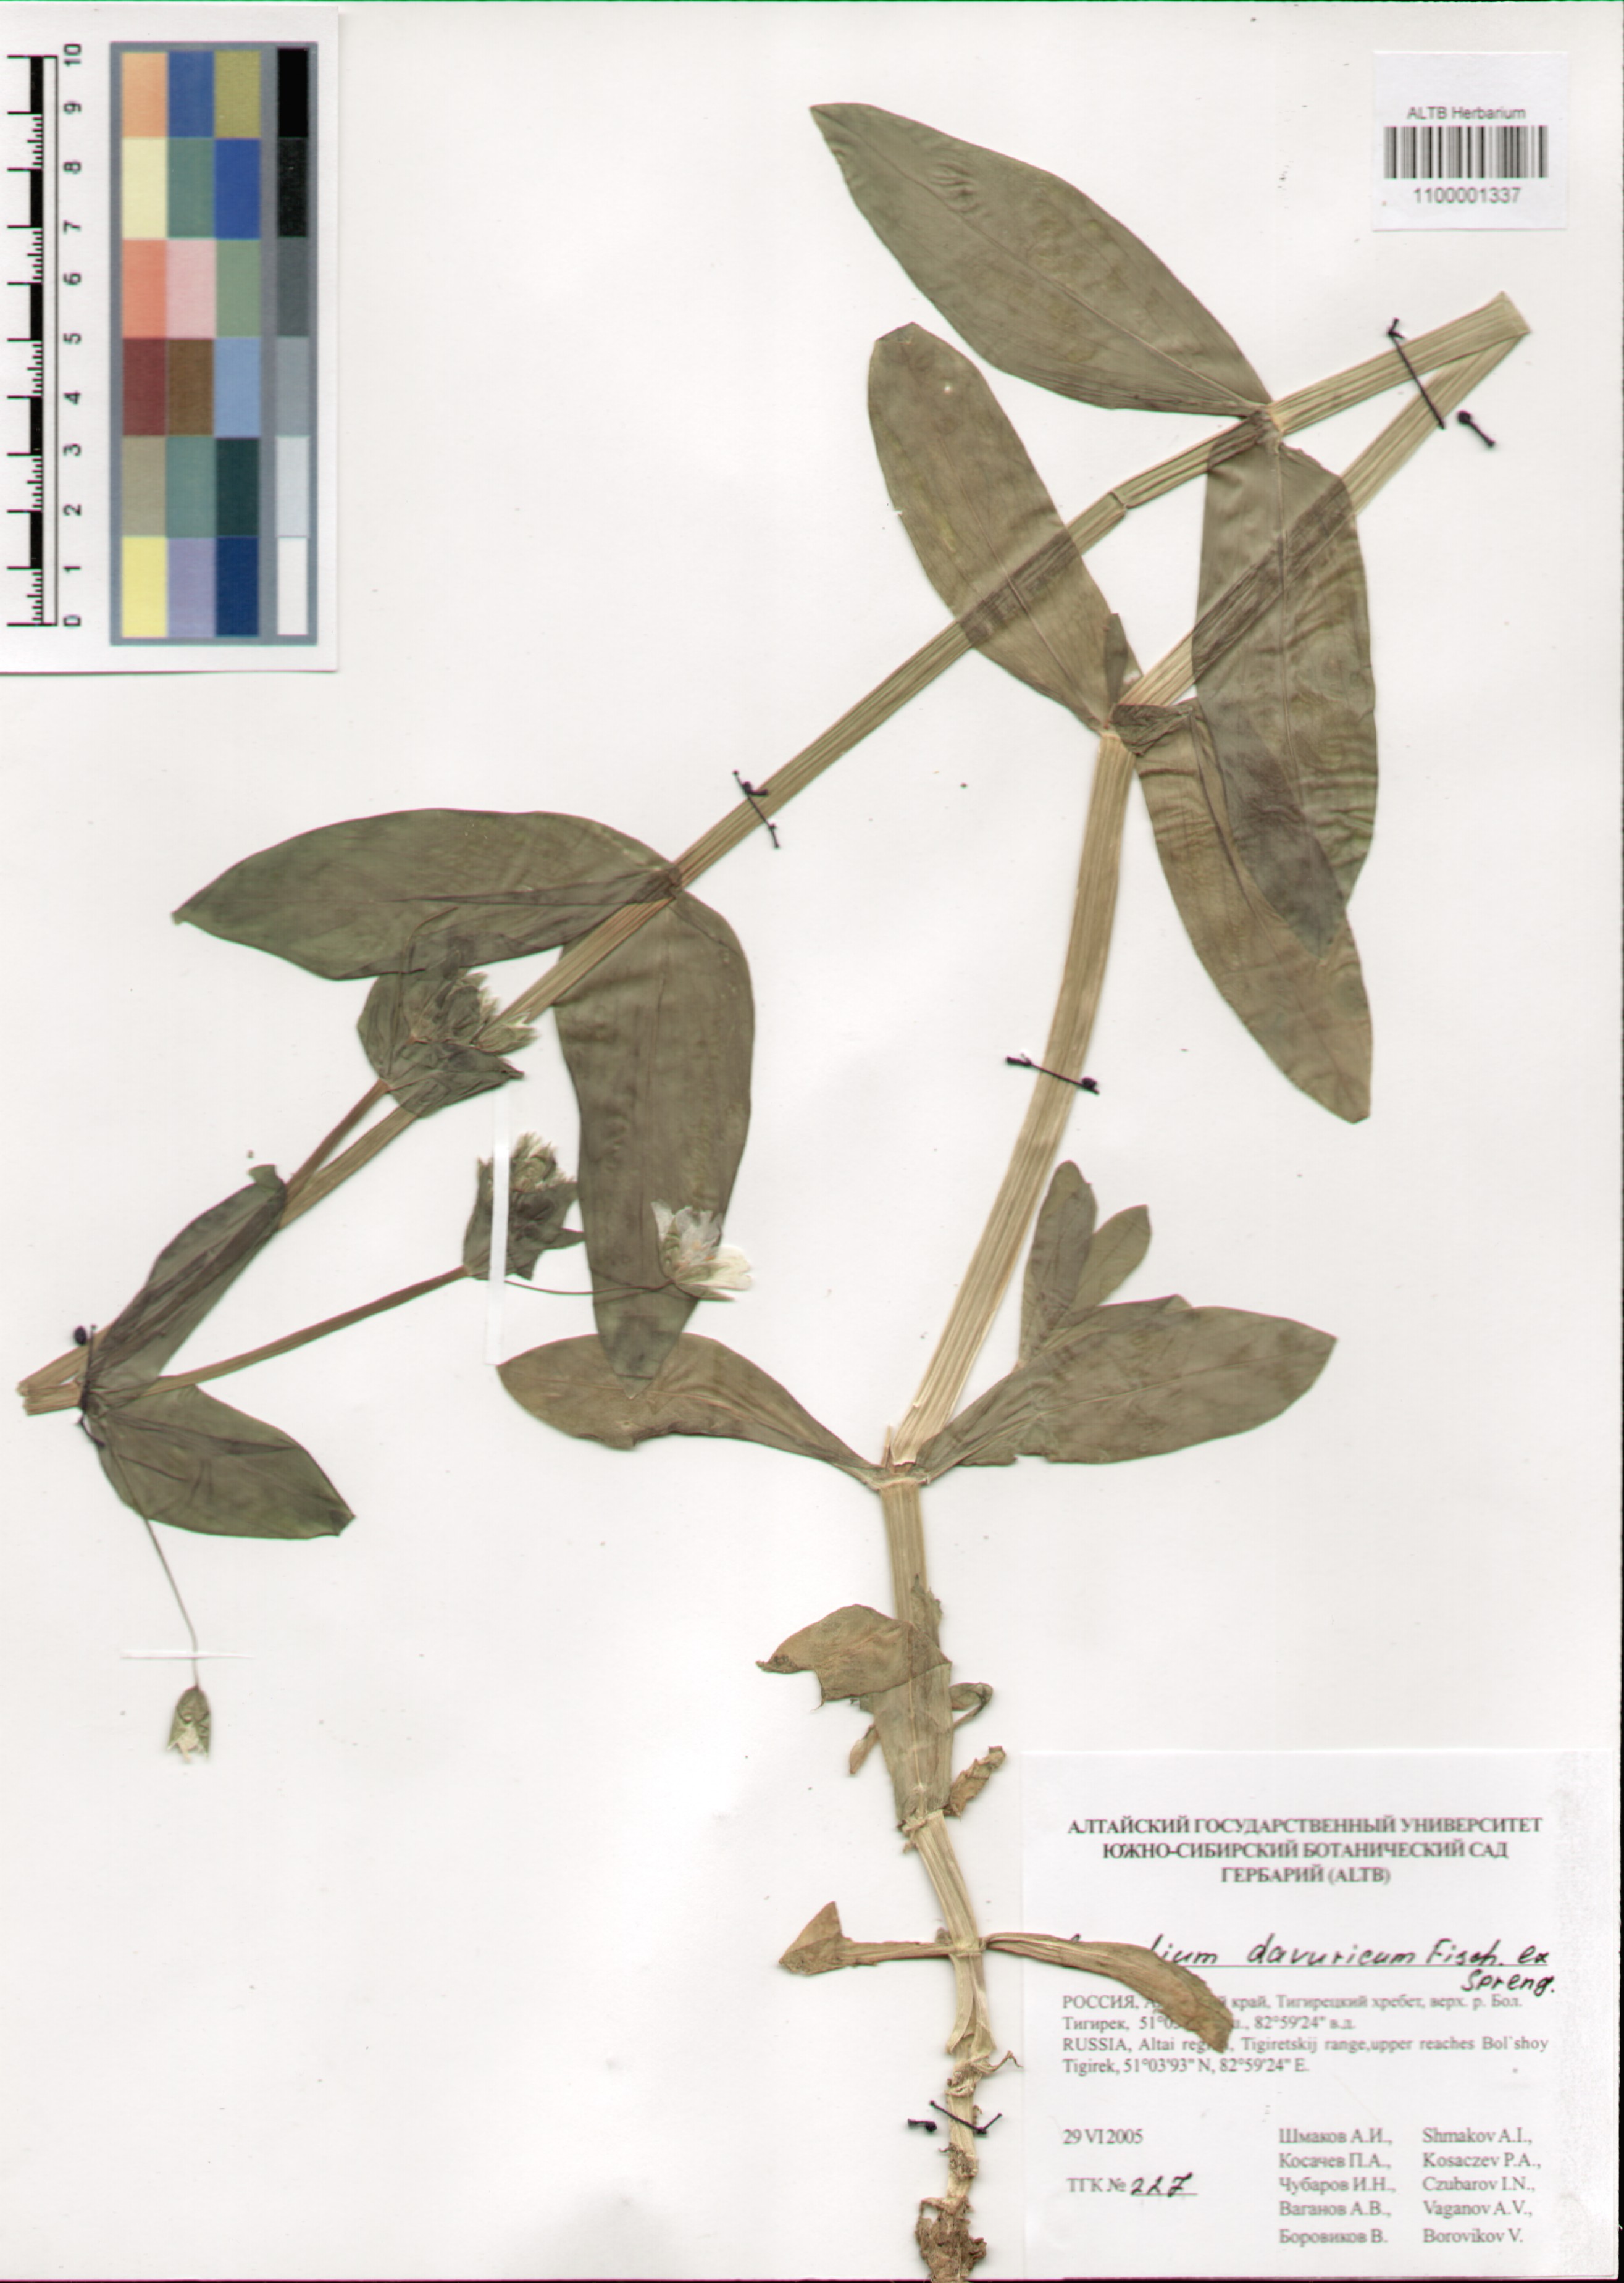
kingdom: Plantae
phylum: Tracheophyta
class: Magnoliopsida
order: Caryophyllales
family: Caryophyllaceae
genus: Dichodon
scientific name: Dichodon davuricum
